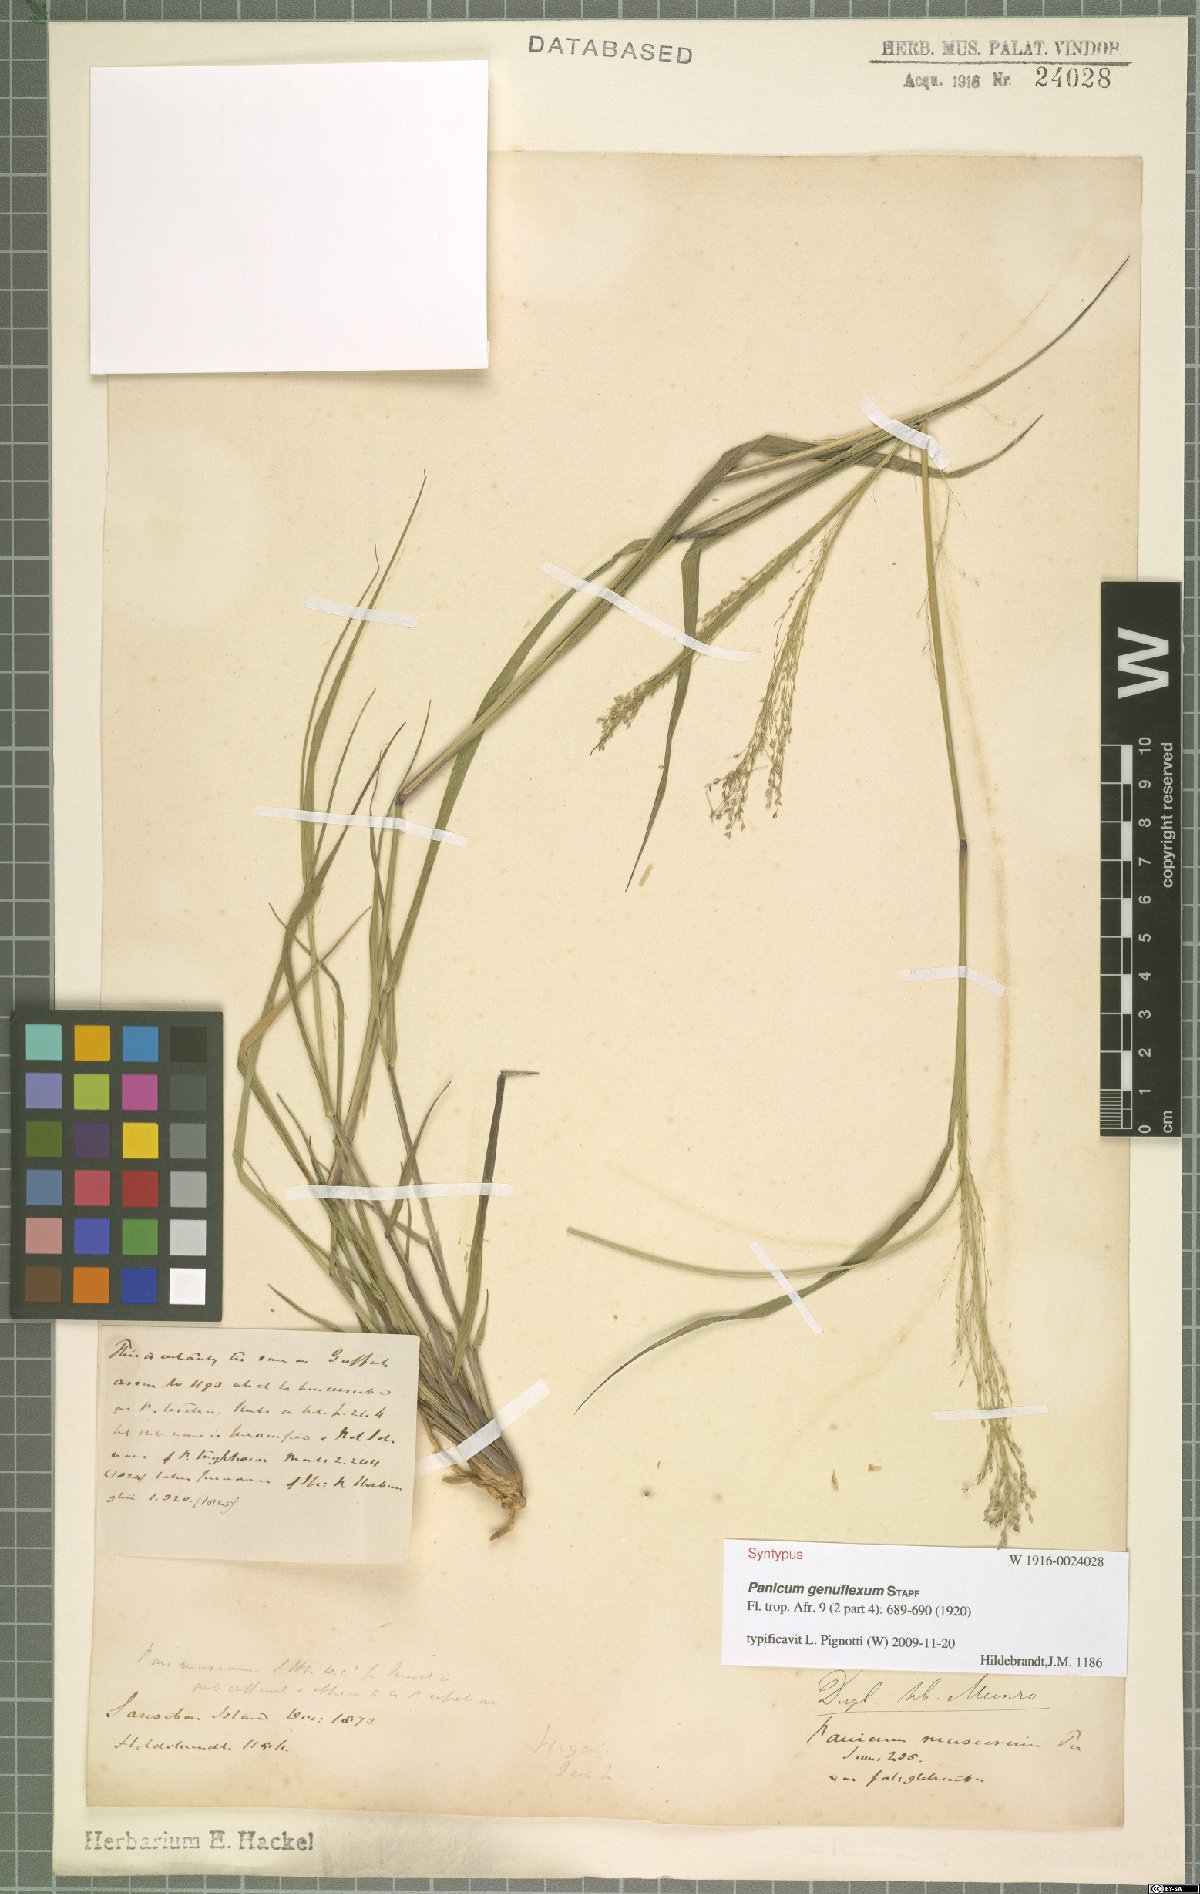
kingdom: Plantae
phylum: Tracheophyta
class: Liliopsida
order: Poales
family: Poaceae
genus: Panicum
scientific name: Panicum genuflexum
